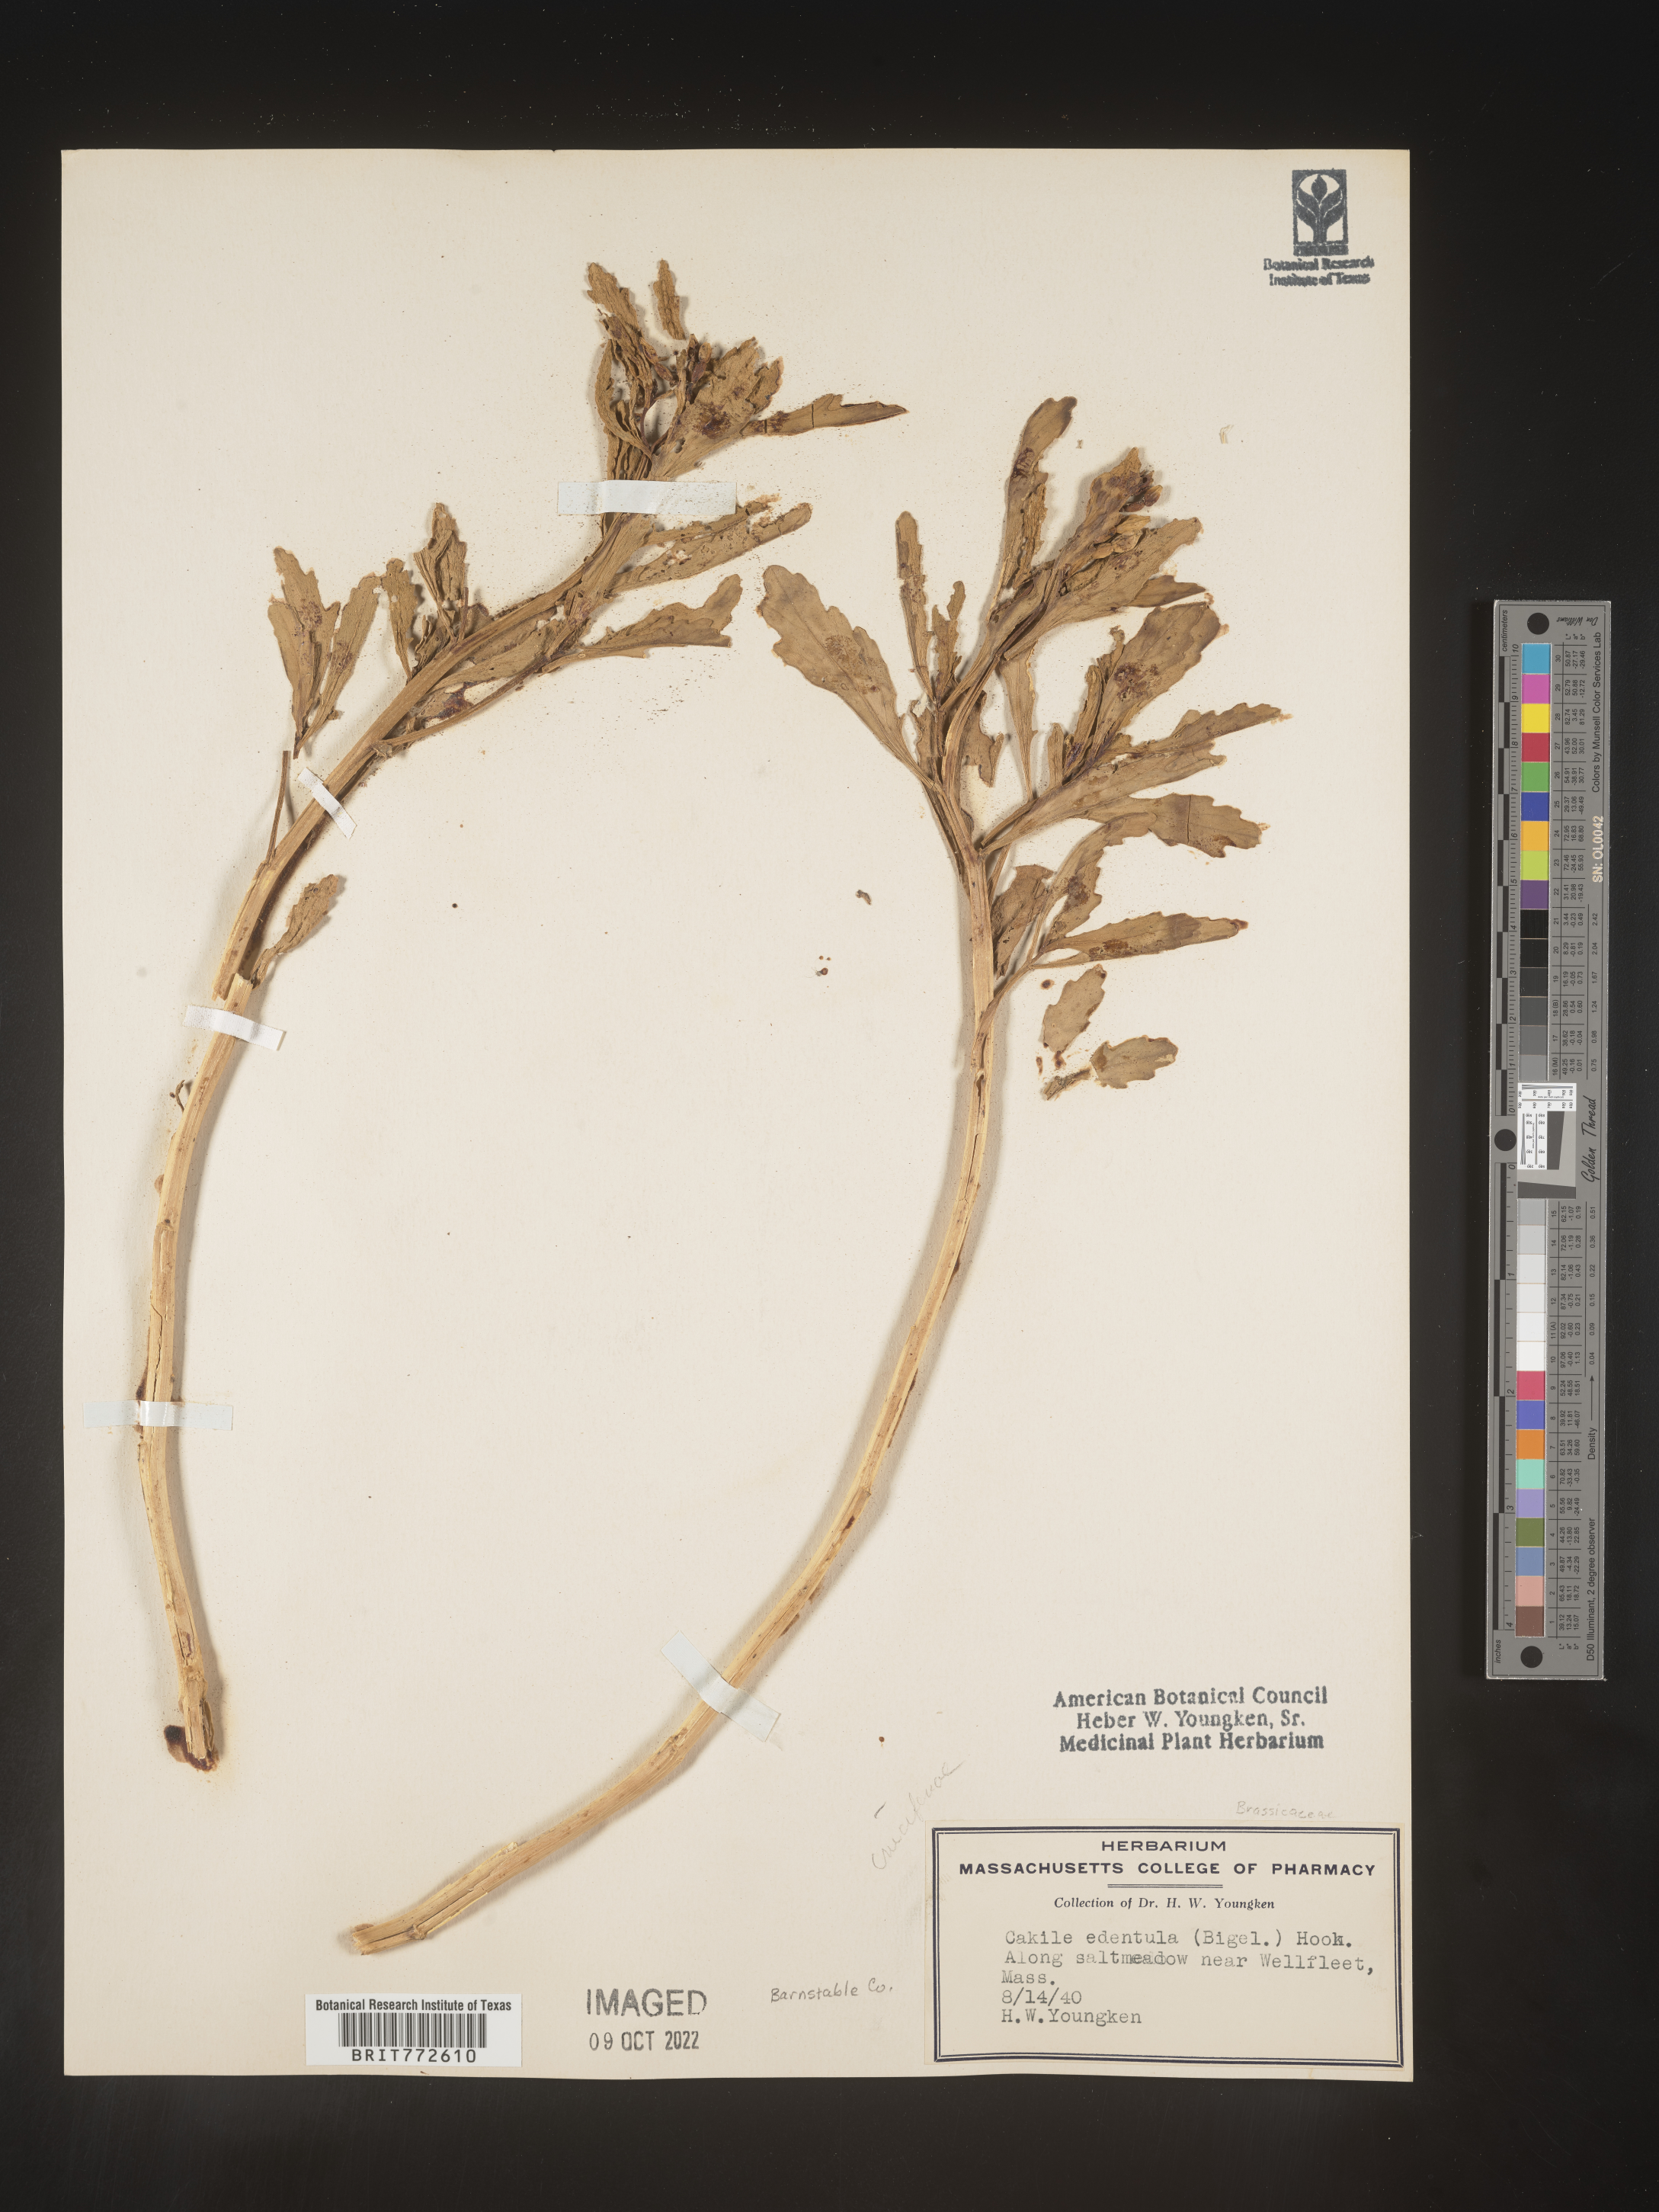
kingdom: Plantae
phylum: Tracheophyta
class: Magnoliopsida
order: Brassicales
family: Brassicaceae
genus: Cakile
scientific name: Cakile edentula
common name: American sea rocket
